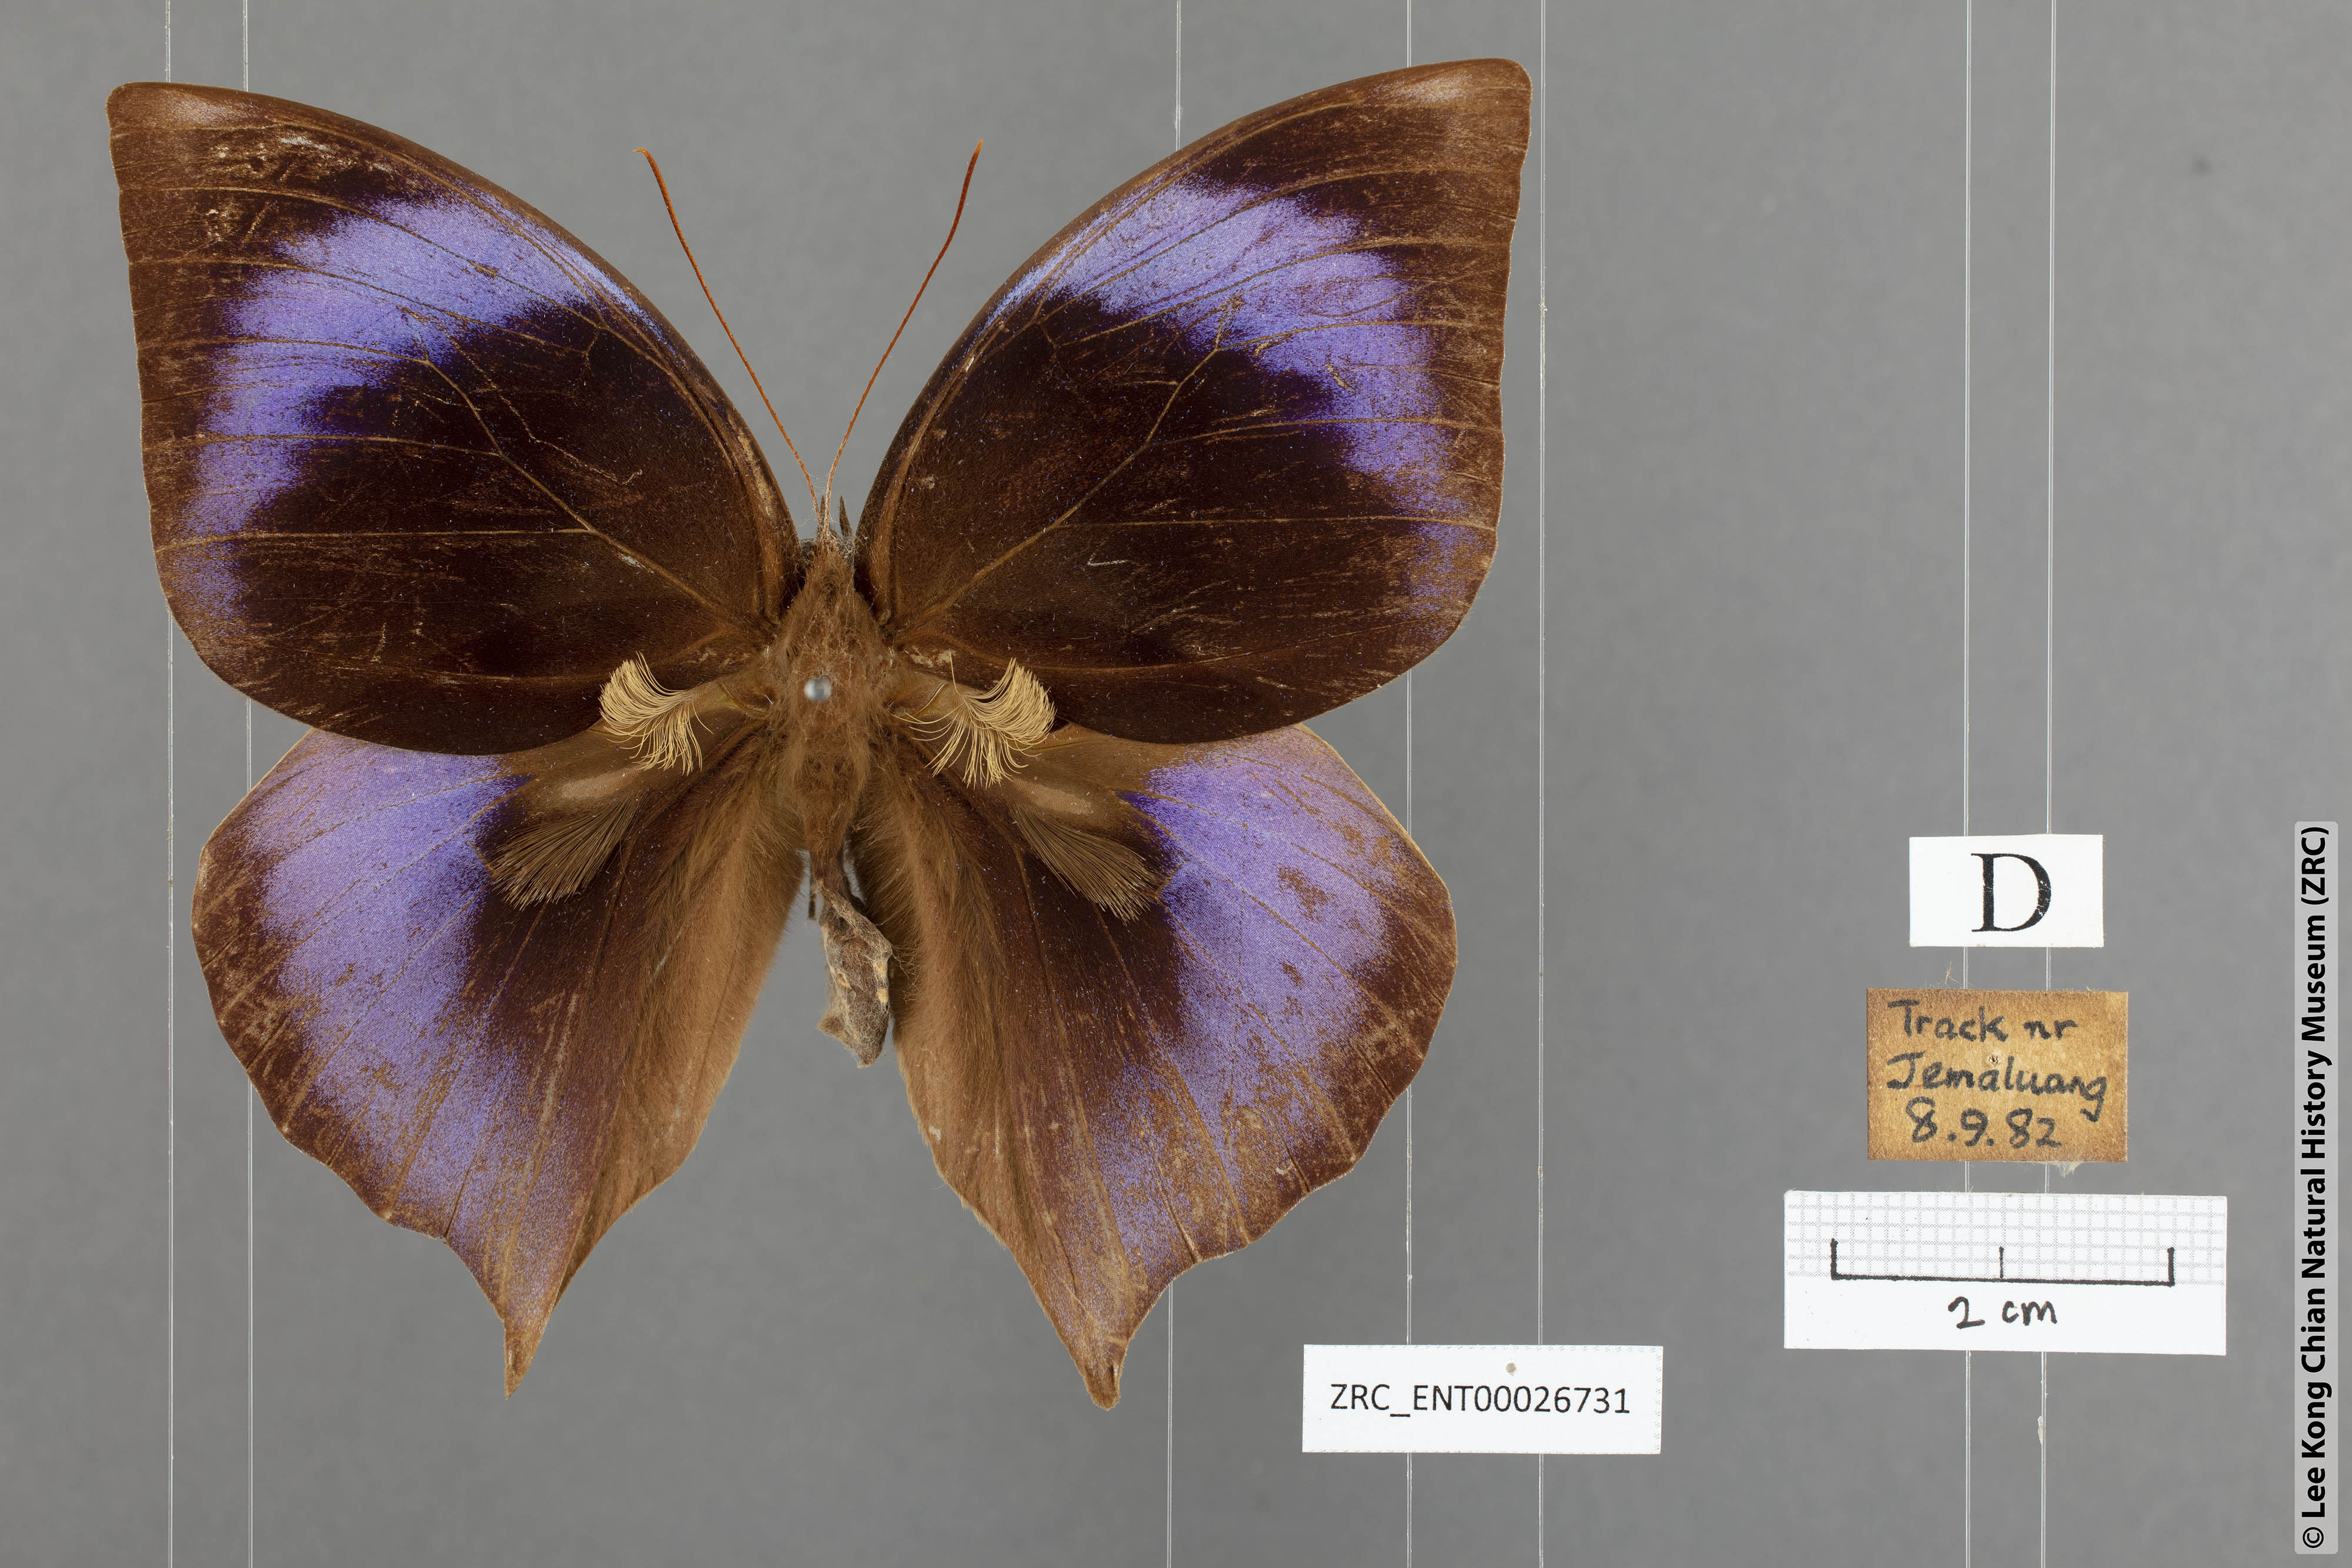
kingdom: Animalia
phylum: Arthropoda
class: Insecta
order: Lepidoptera
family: Nymphalidae
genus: Zeuxidia
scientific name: Zeuxidia doubledaii
